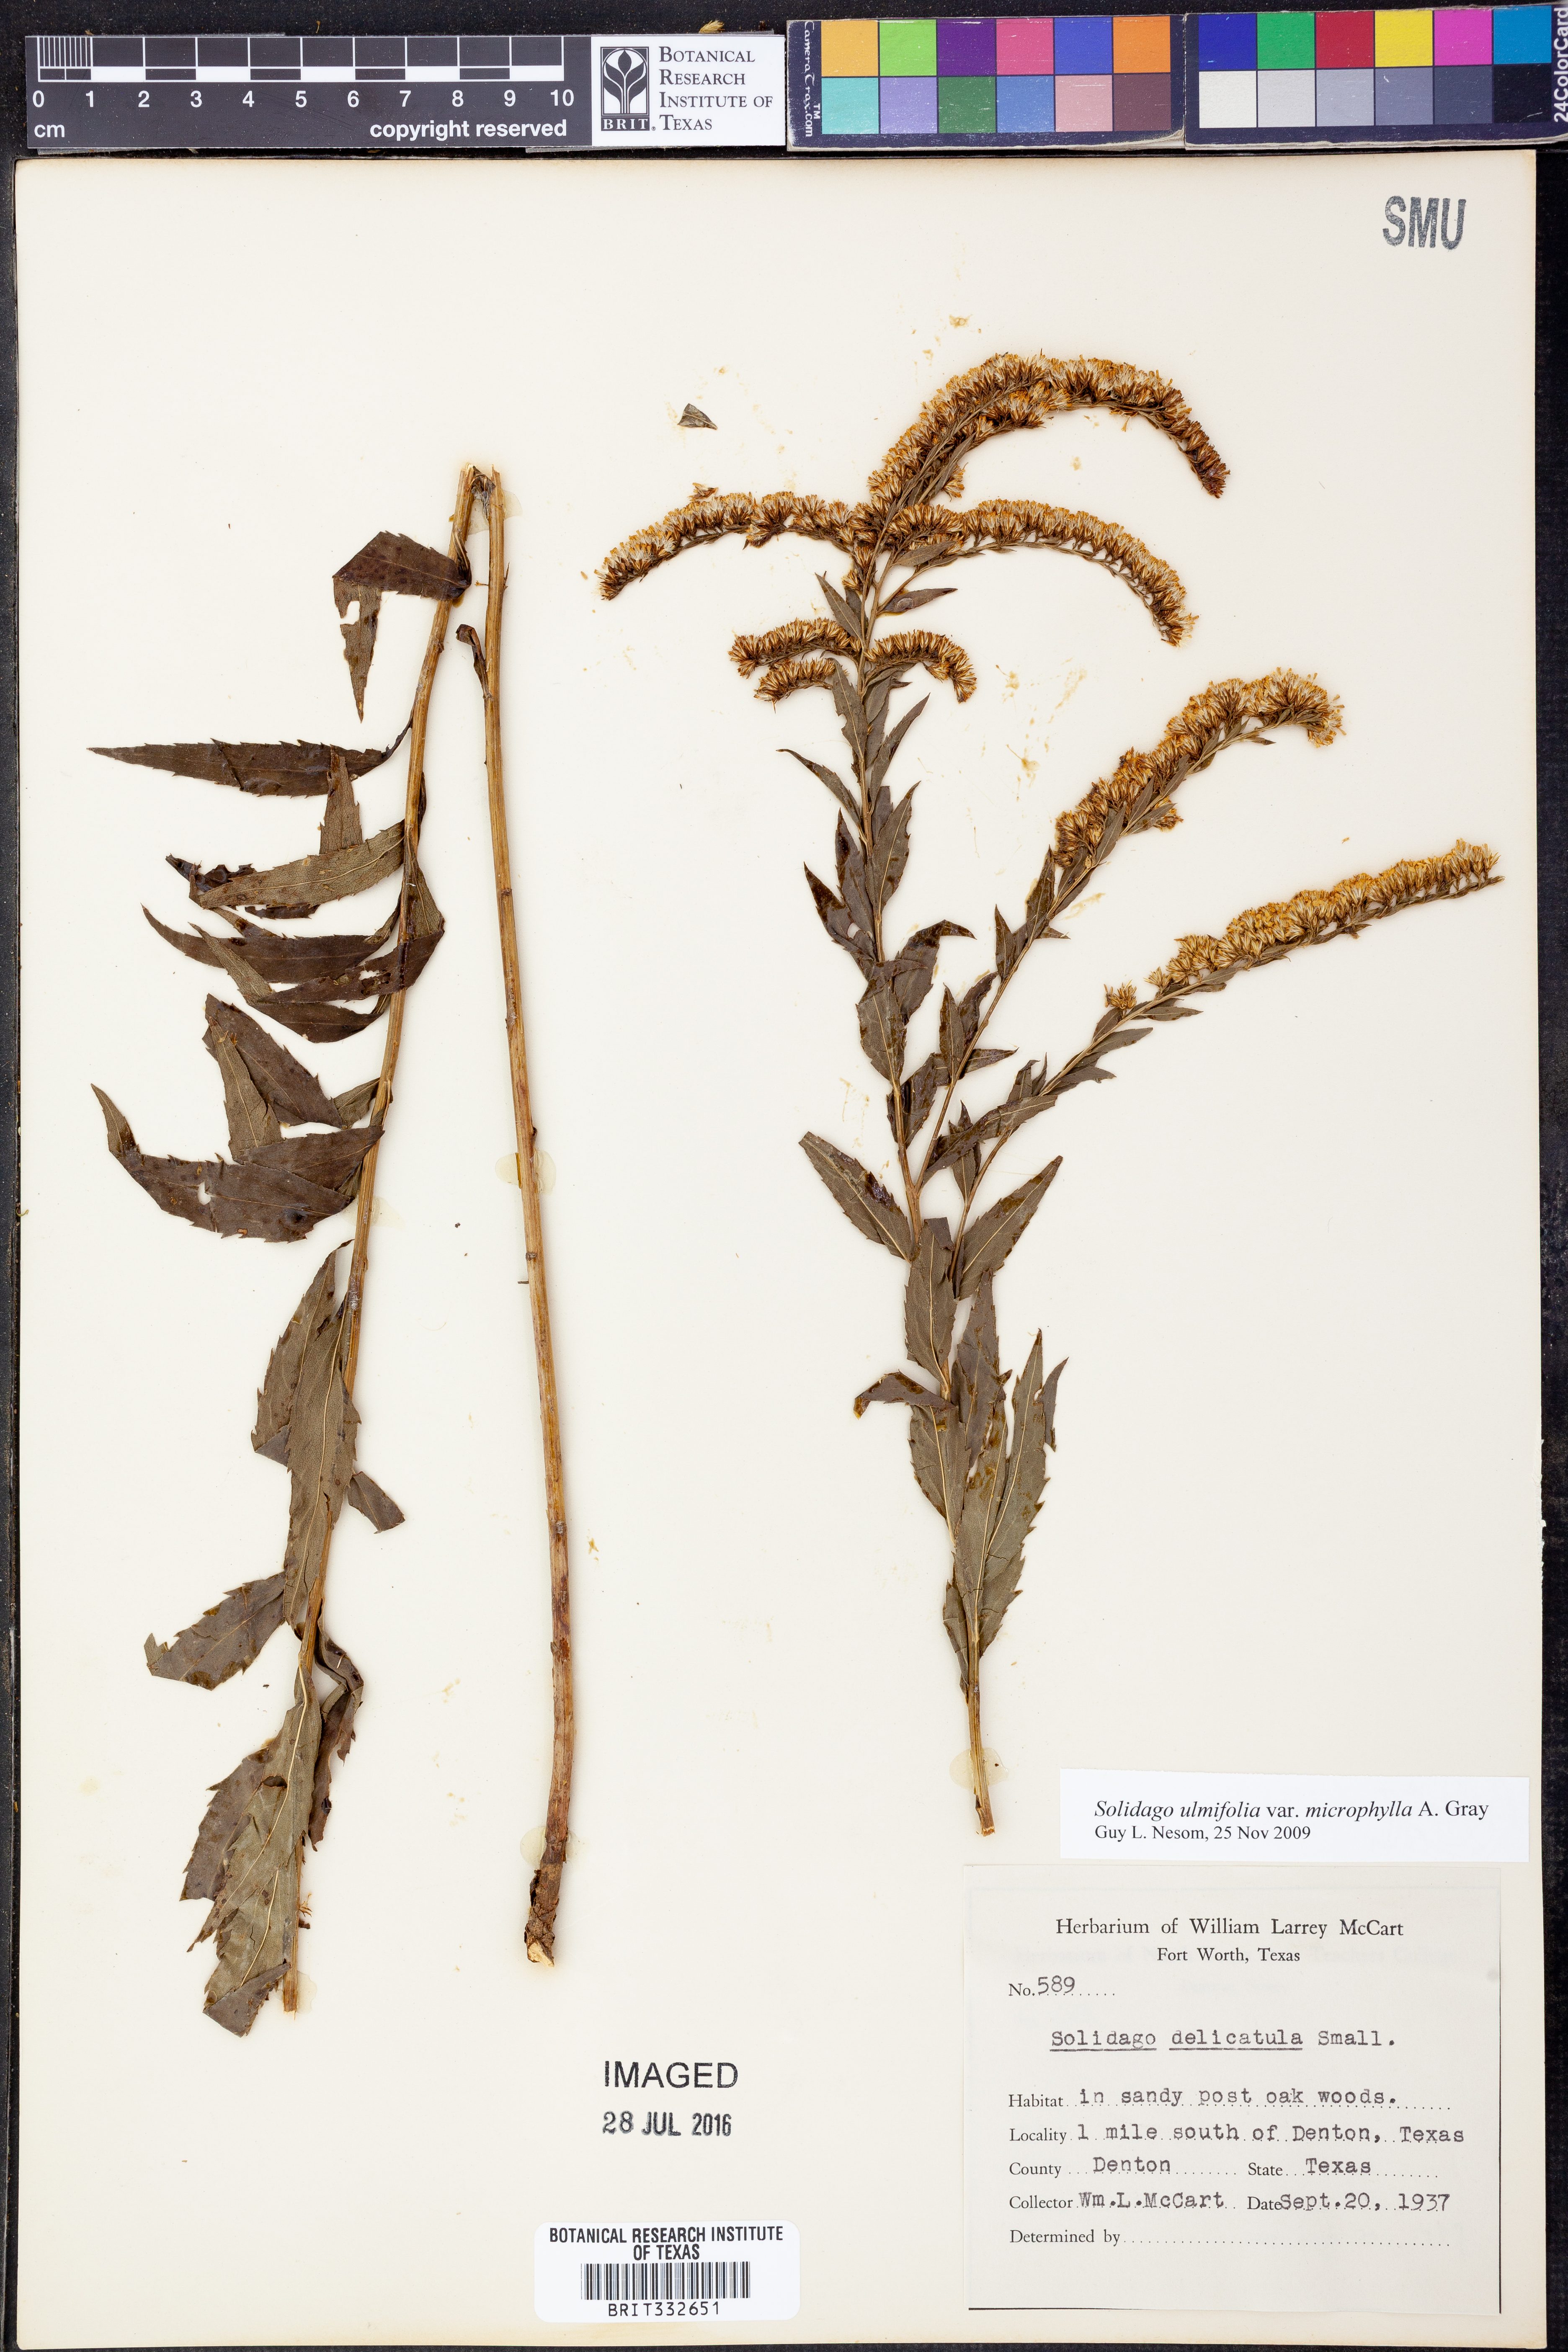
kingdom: Plantae
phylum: Tracheophyta
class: Magnoliopsida
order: Asterales
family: Asteraceae
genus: Solidago
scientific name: Solidago delicatula
